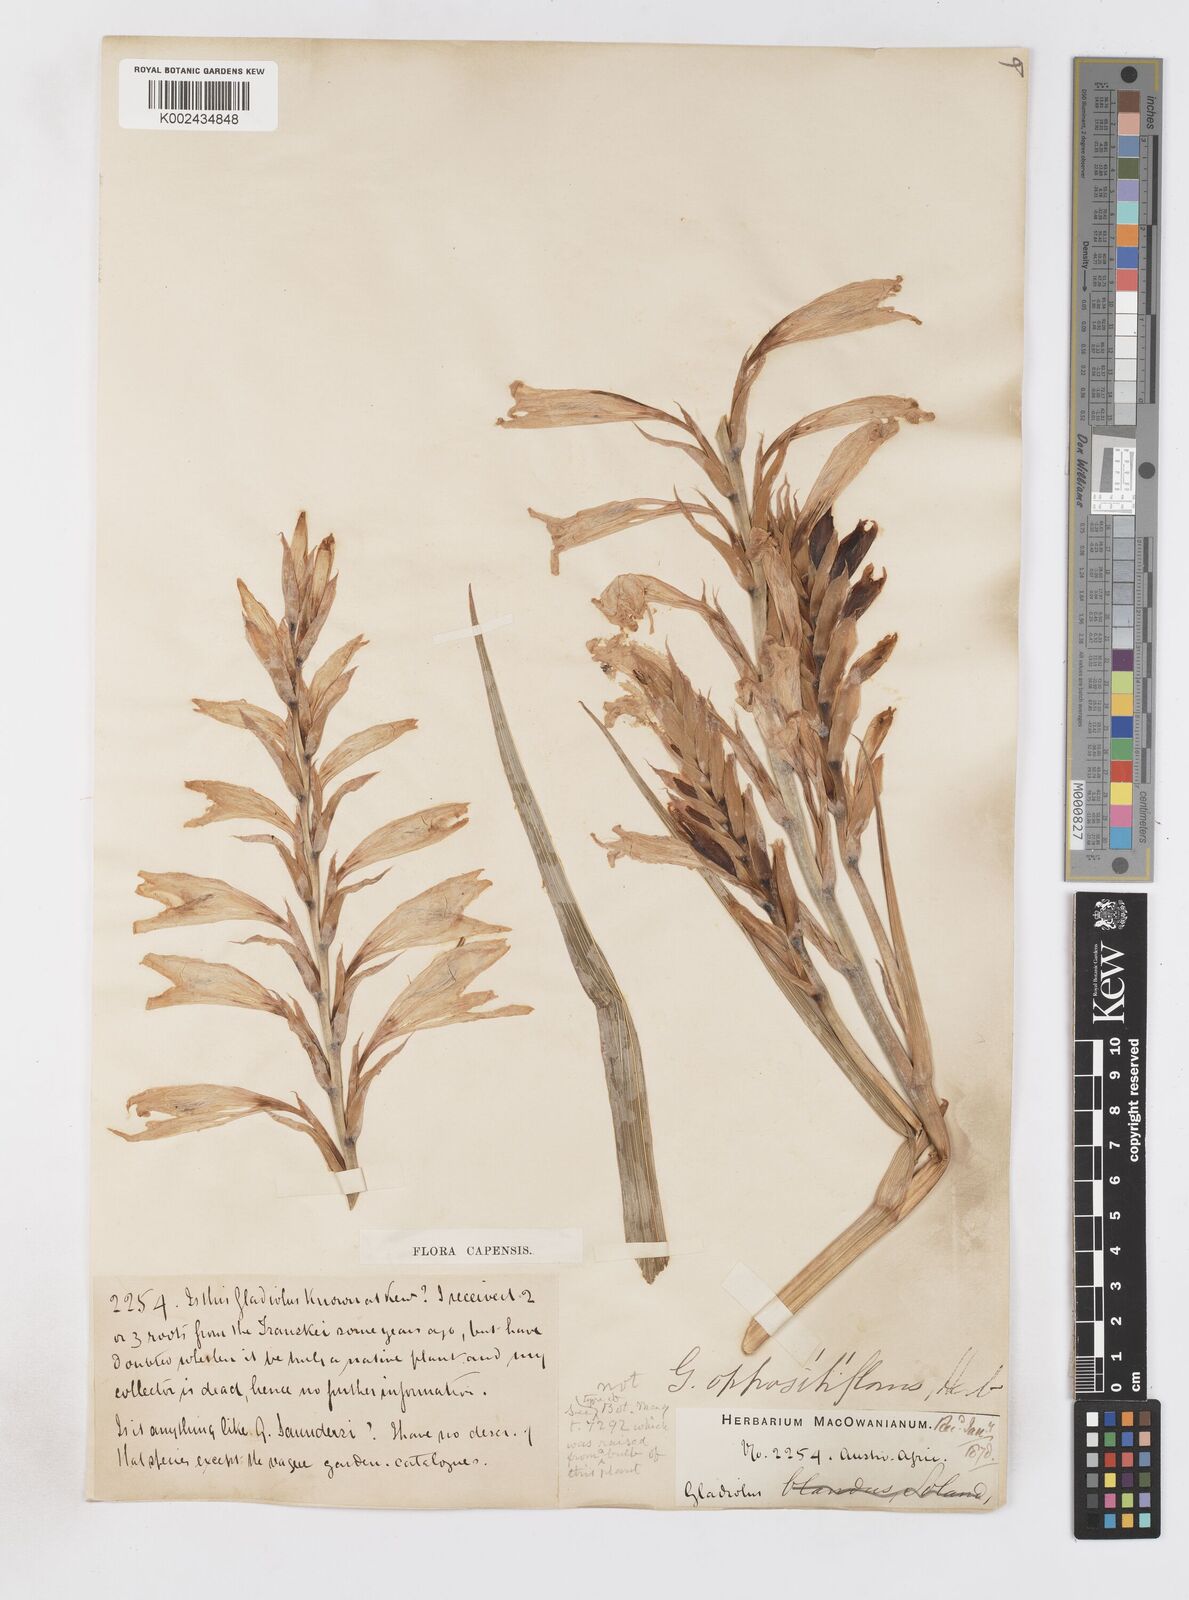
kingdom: Plantae
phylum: Tracheophyta
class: Liliopsida
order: Asparagales
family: Iridaceae
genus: Gladiolus
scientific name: Gladiolus oppositiflorus
